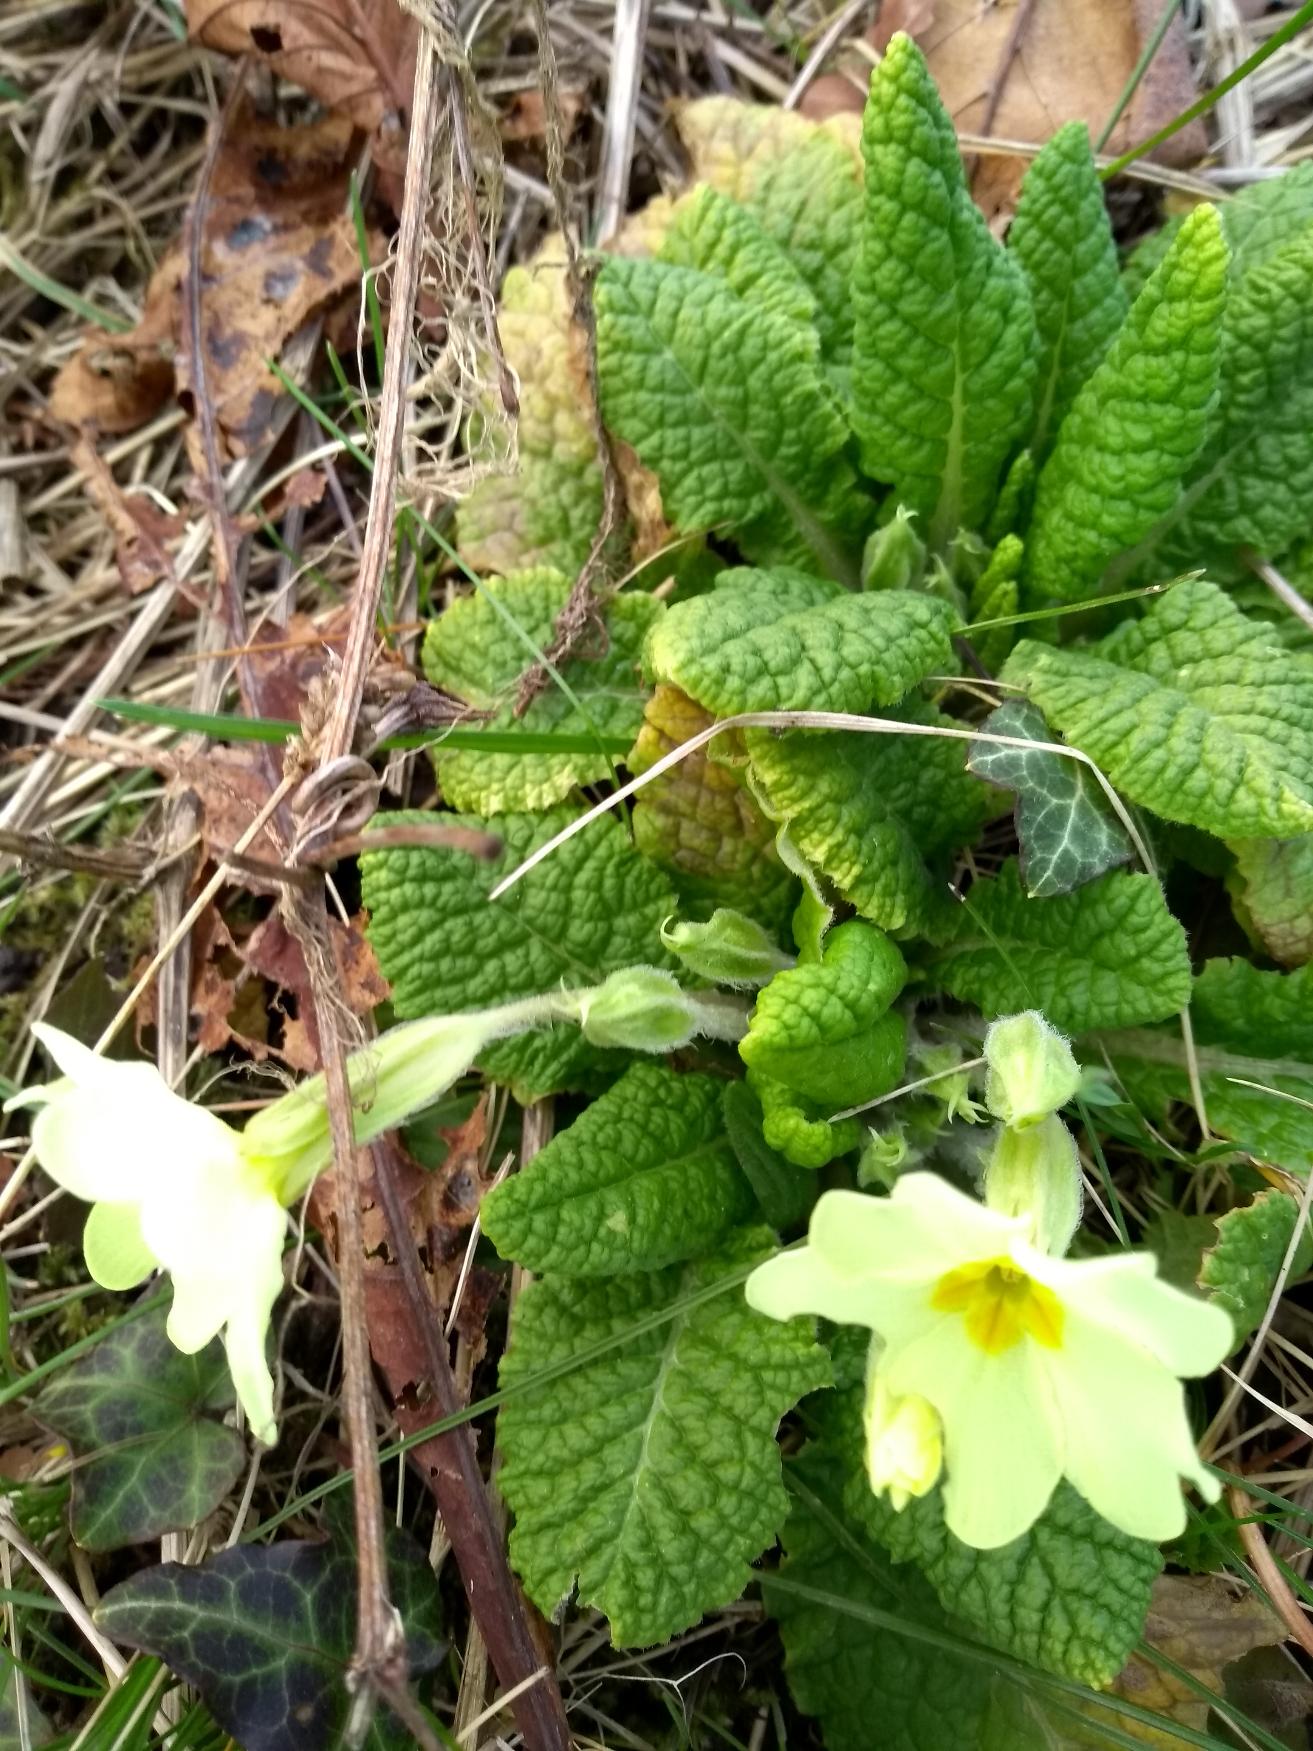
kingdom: Plantae
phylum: Tracheophyta
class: Magnoliopsida
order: Ericales
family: Primulaceae
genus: Primula
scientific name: Primula vulgaris
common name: Storblomstret kodriver
